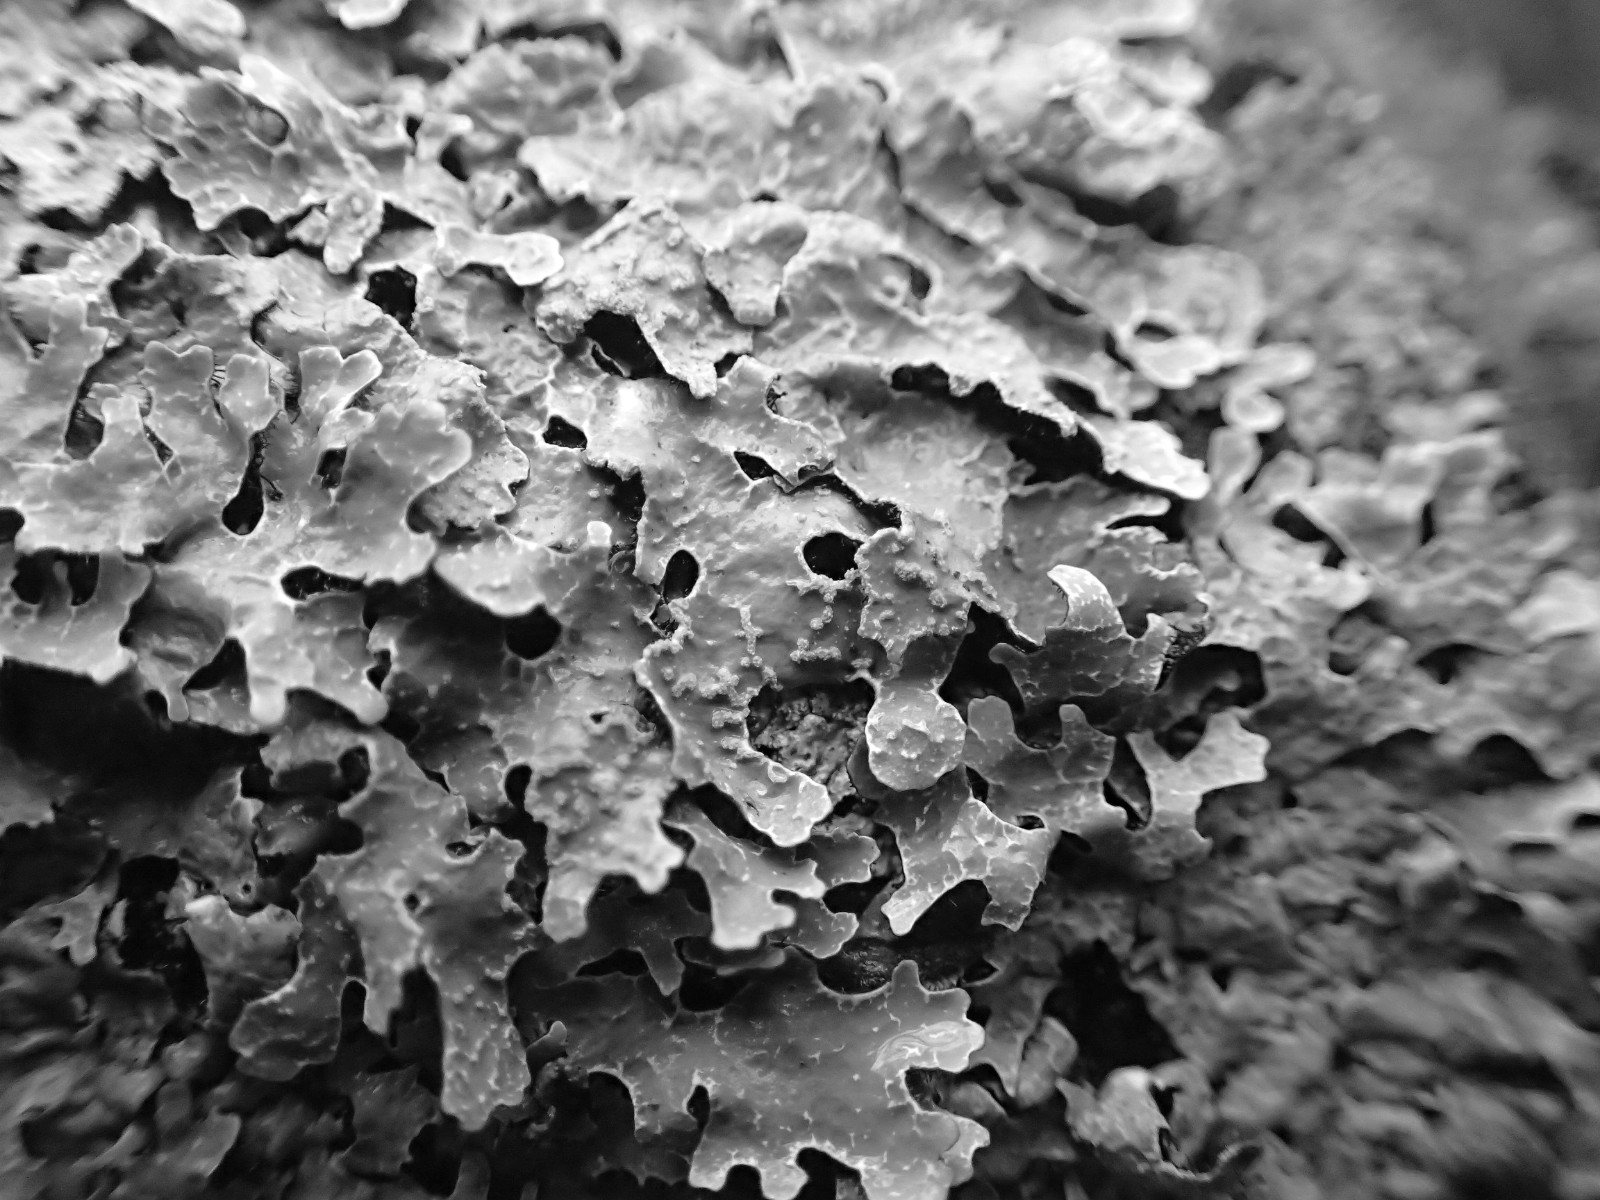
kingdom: Fungi
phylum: Ascomycota
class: Lecanoromycetes
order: Lecanorales
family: Parmeliaceae
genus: Parmelia
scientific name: Parmelia sulcata
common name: rynket skållav
